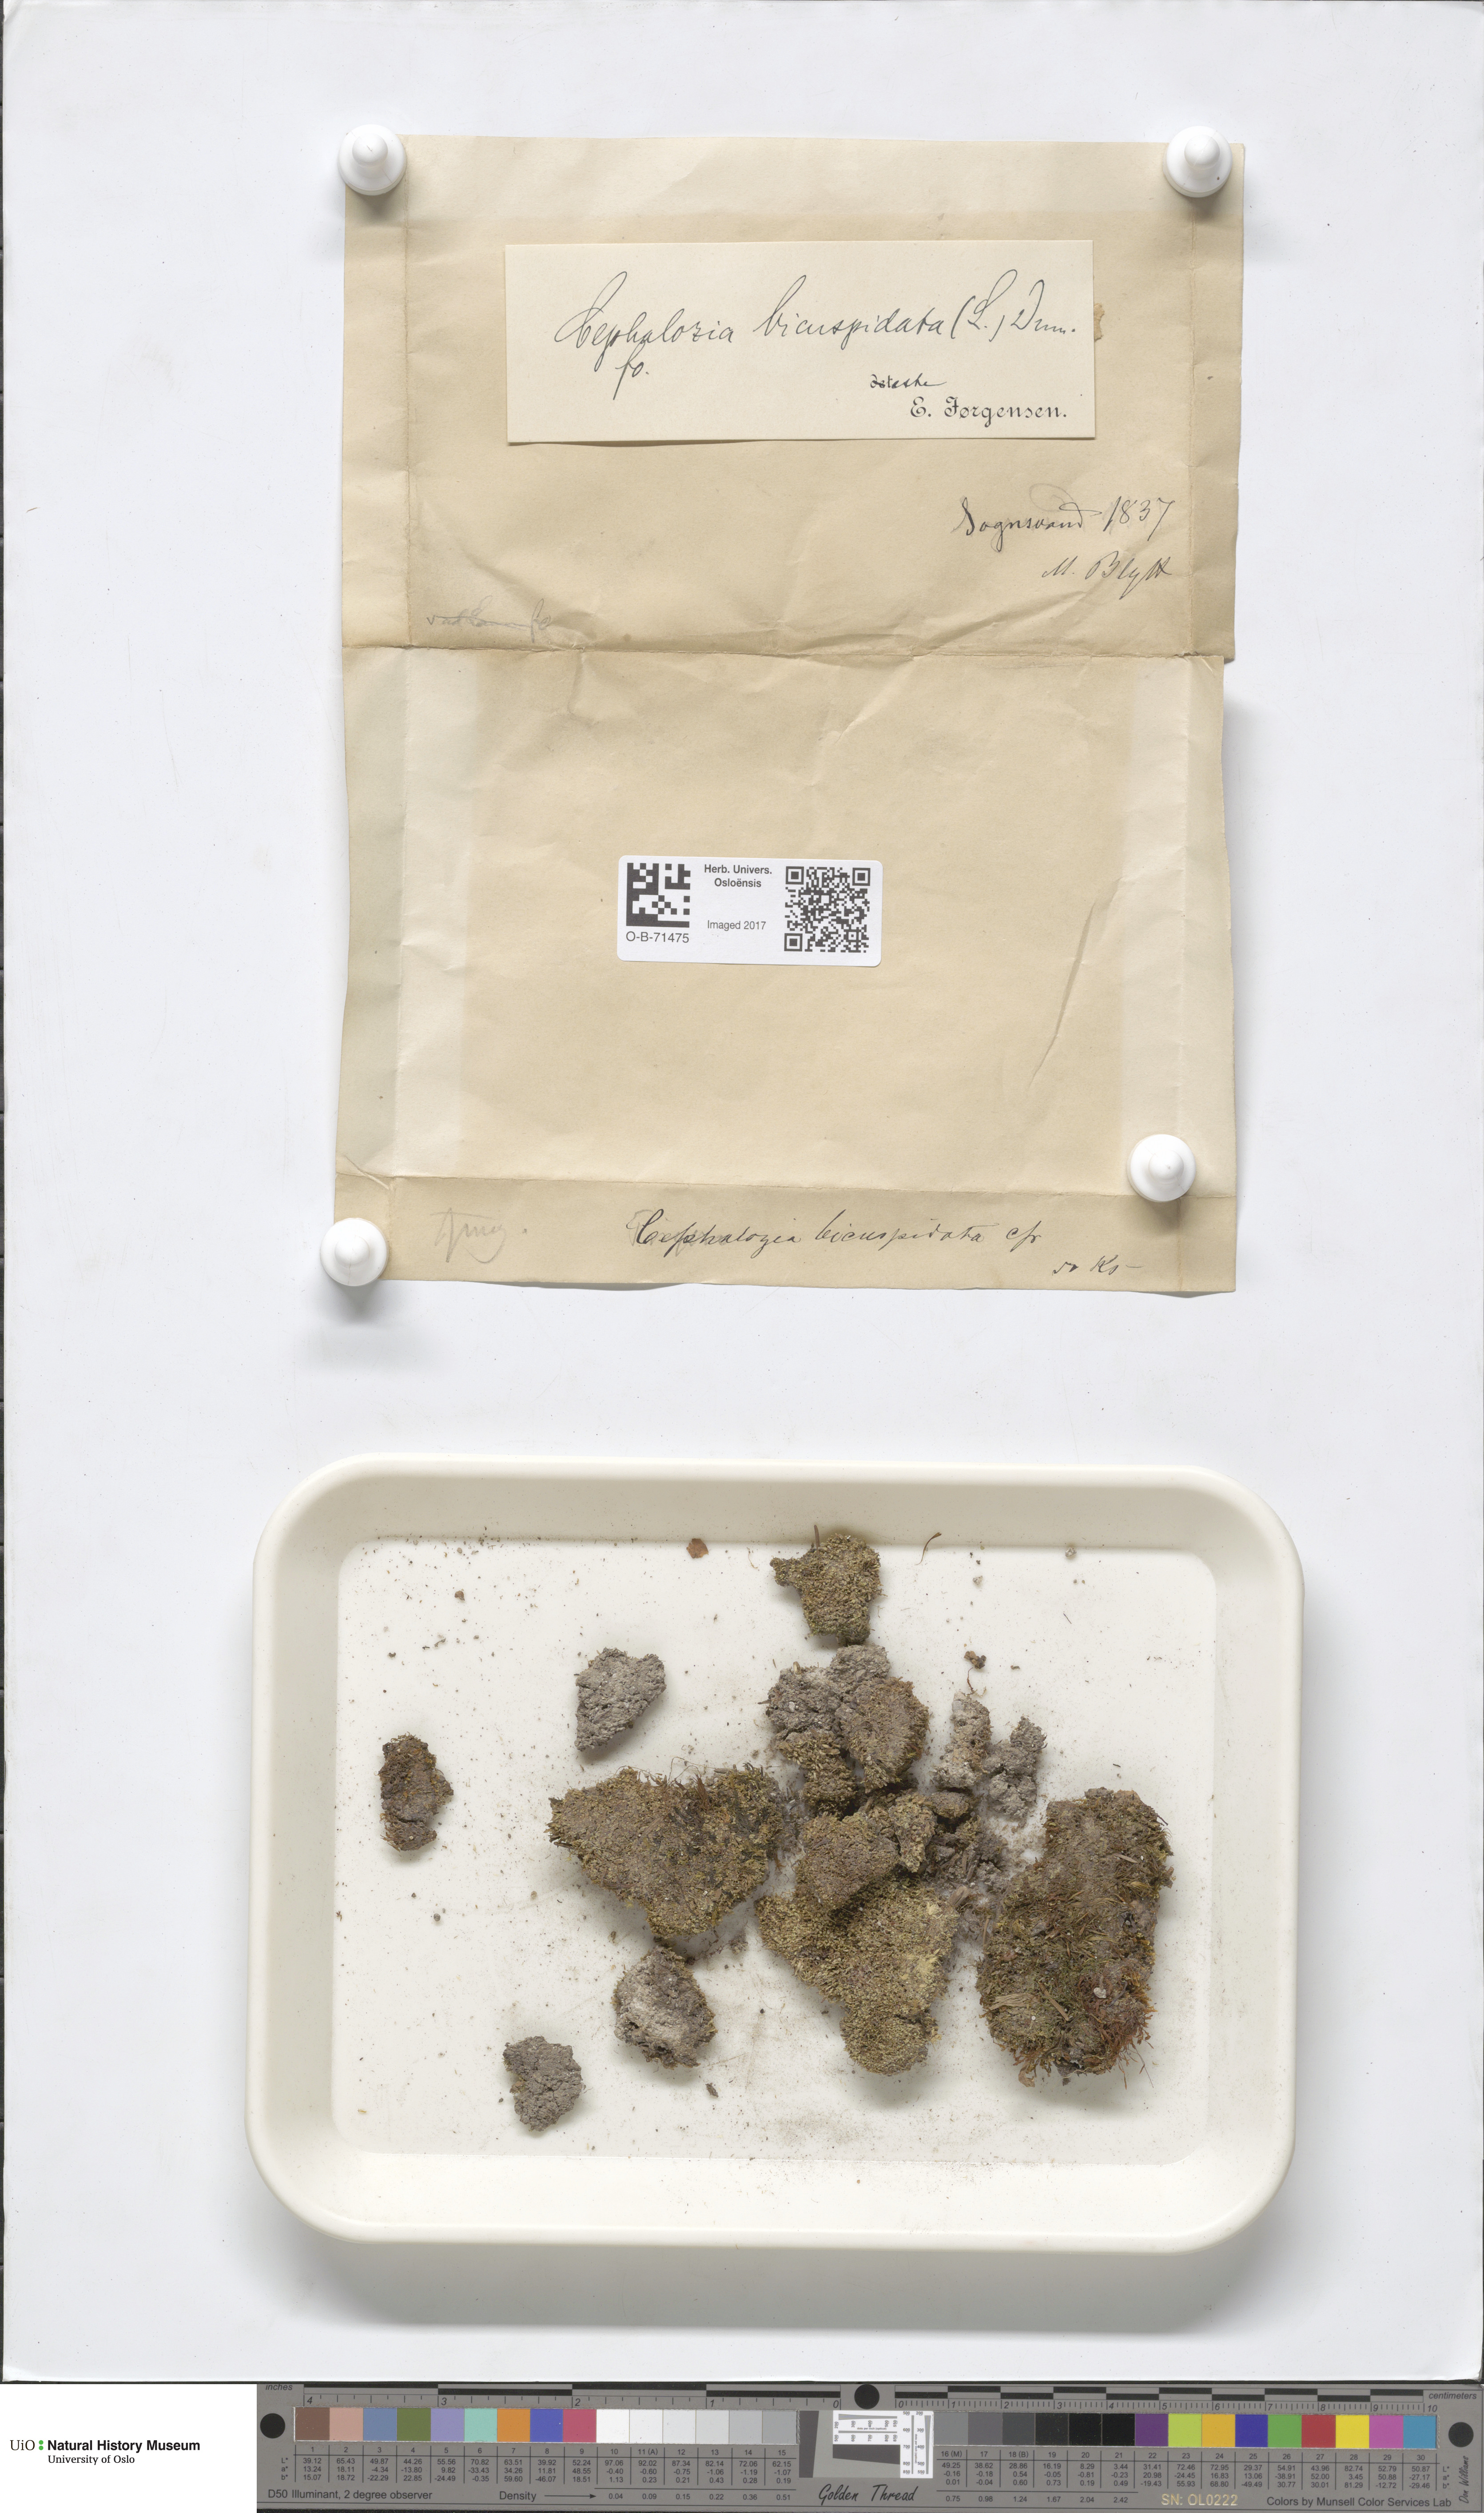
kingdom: Plantae
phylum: Marchantiophyta
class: Jungermanniopsida
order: Jungermanniales
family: Cephaloziaceae
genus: Cephalozia
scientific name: Cephalozia bicuspidata
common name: Two-horned pincerwort
